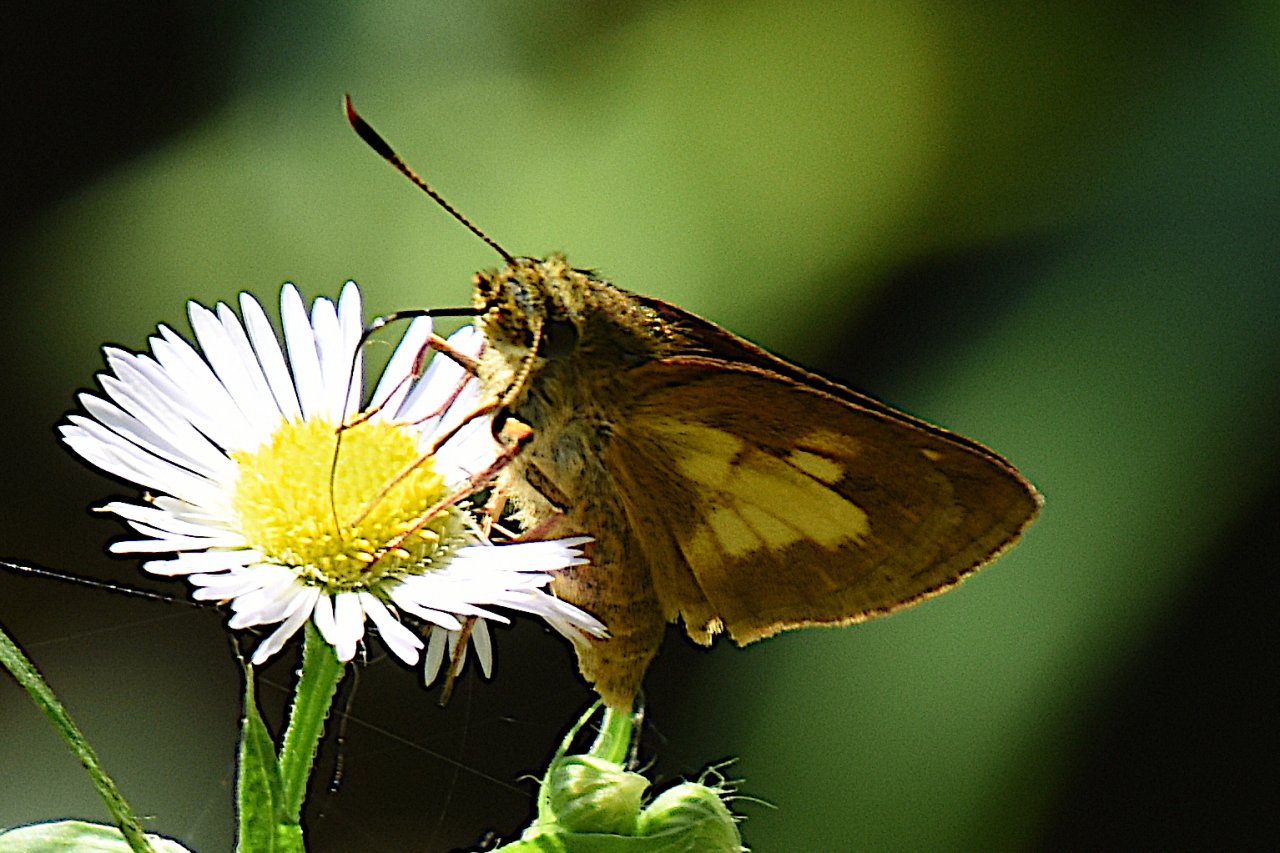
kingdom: Animalia
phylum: Arthropoda
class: Insecta
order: Lepidoptera
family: Hesperiidae
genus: Poanes
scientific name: Poanes
